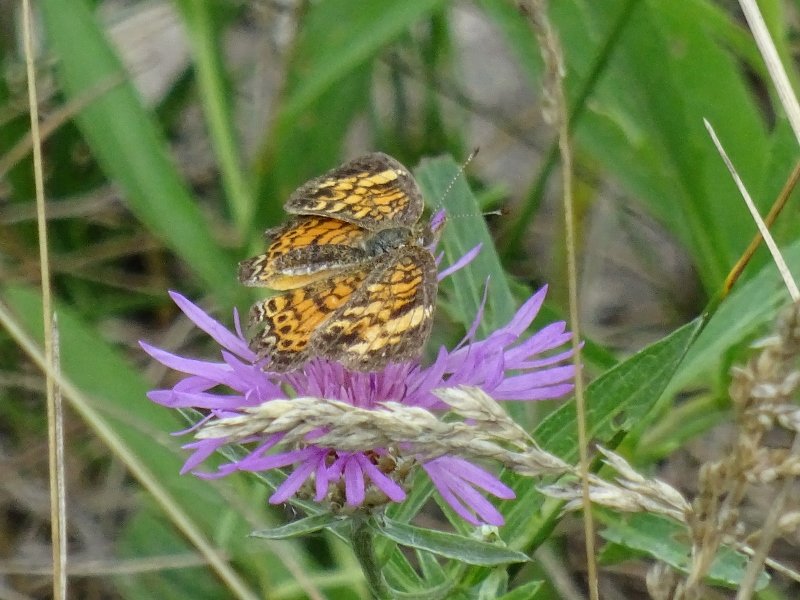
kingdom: Animalia
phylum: Arthropoda
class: Insecta
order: Lepidoptera
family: Nymphalidae
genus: Phyciodes
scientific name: Phyciodes tharos
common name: Pearl Crescent
